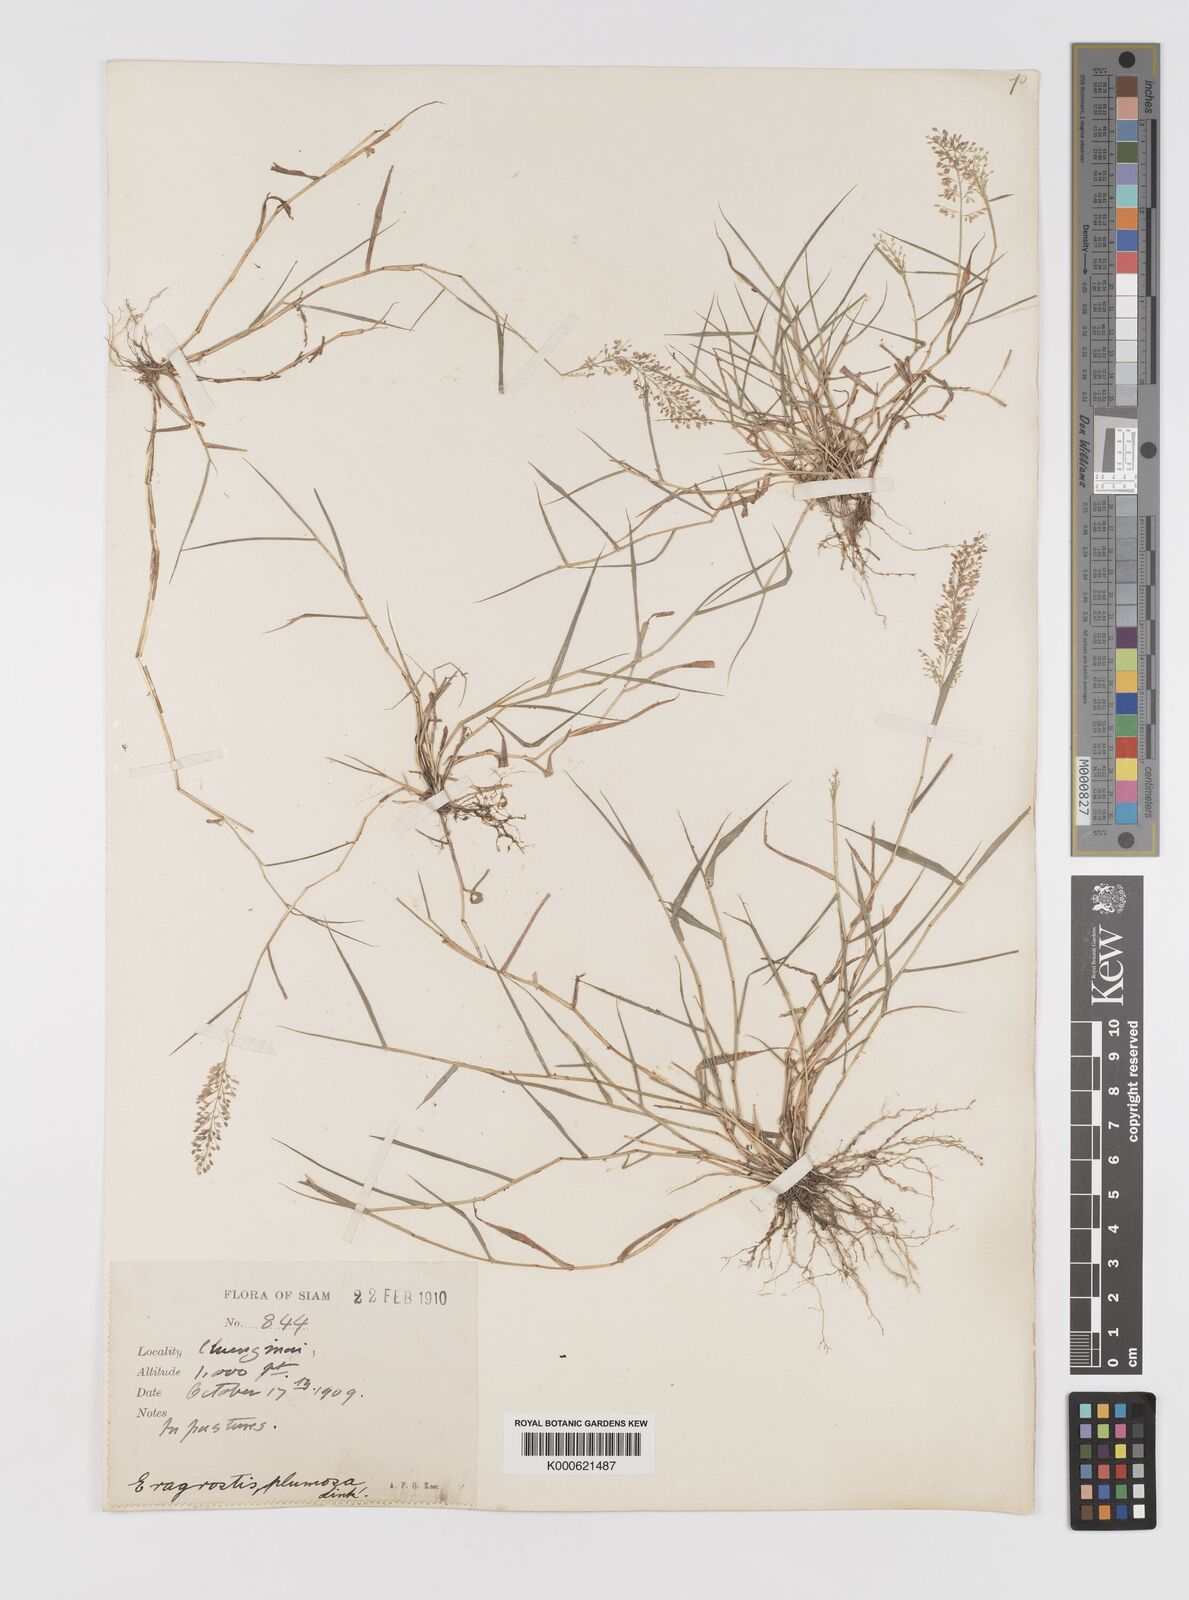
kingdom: Plantae
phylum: Tracheophyta
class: Liliopsida
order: Poales
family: Poaceae
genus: Eragrostis
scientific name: Eragrostis tenella
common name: Japanese lovegrass
